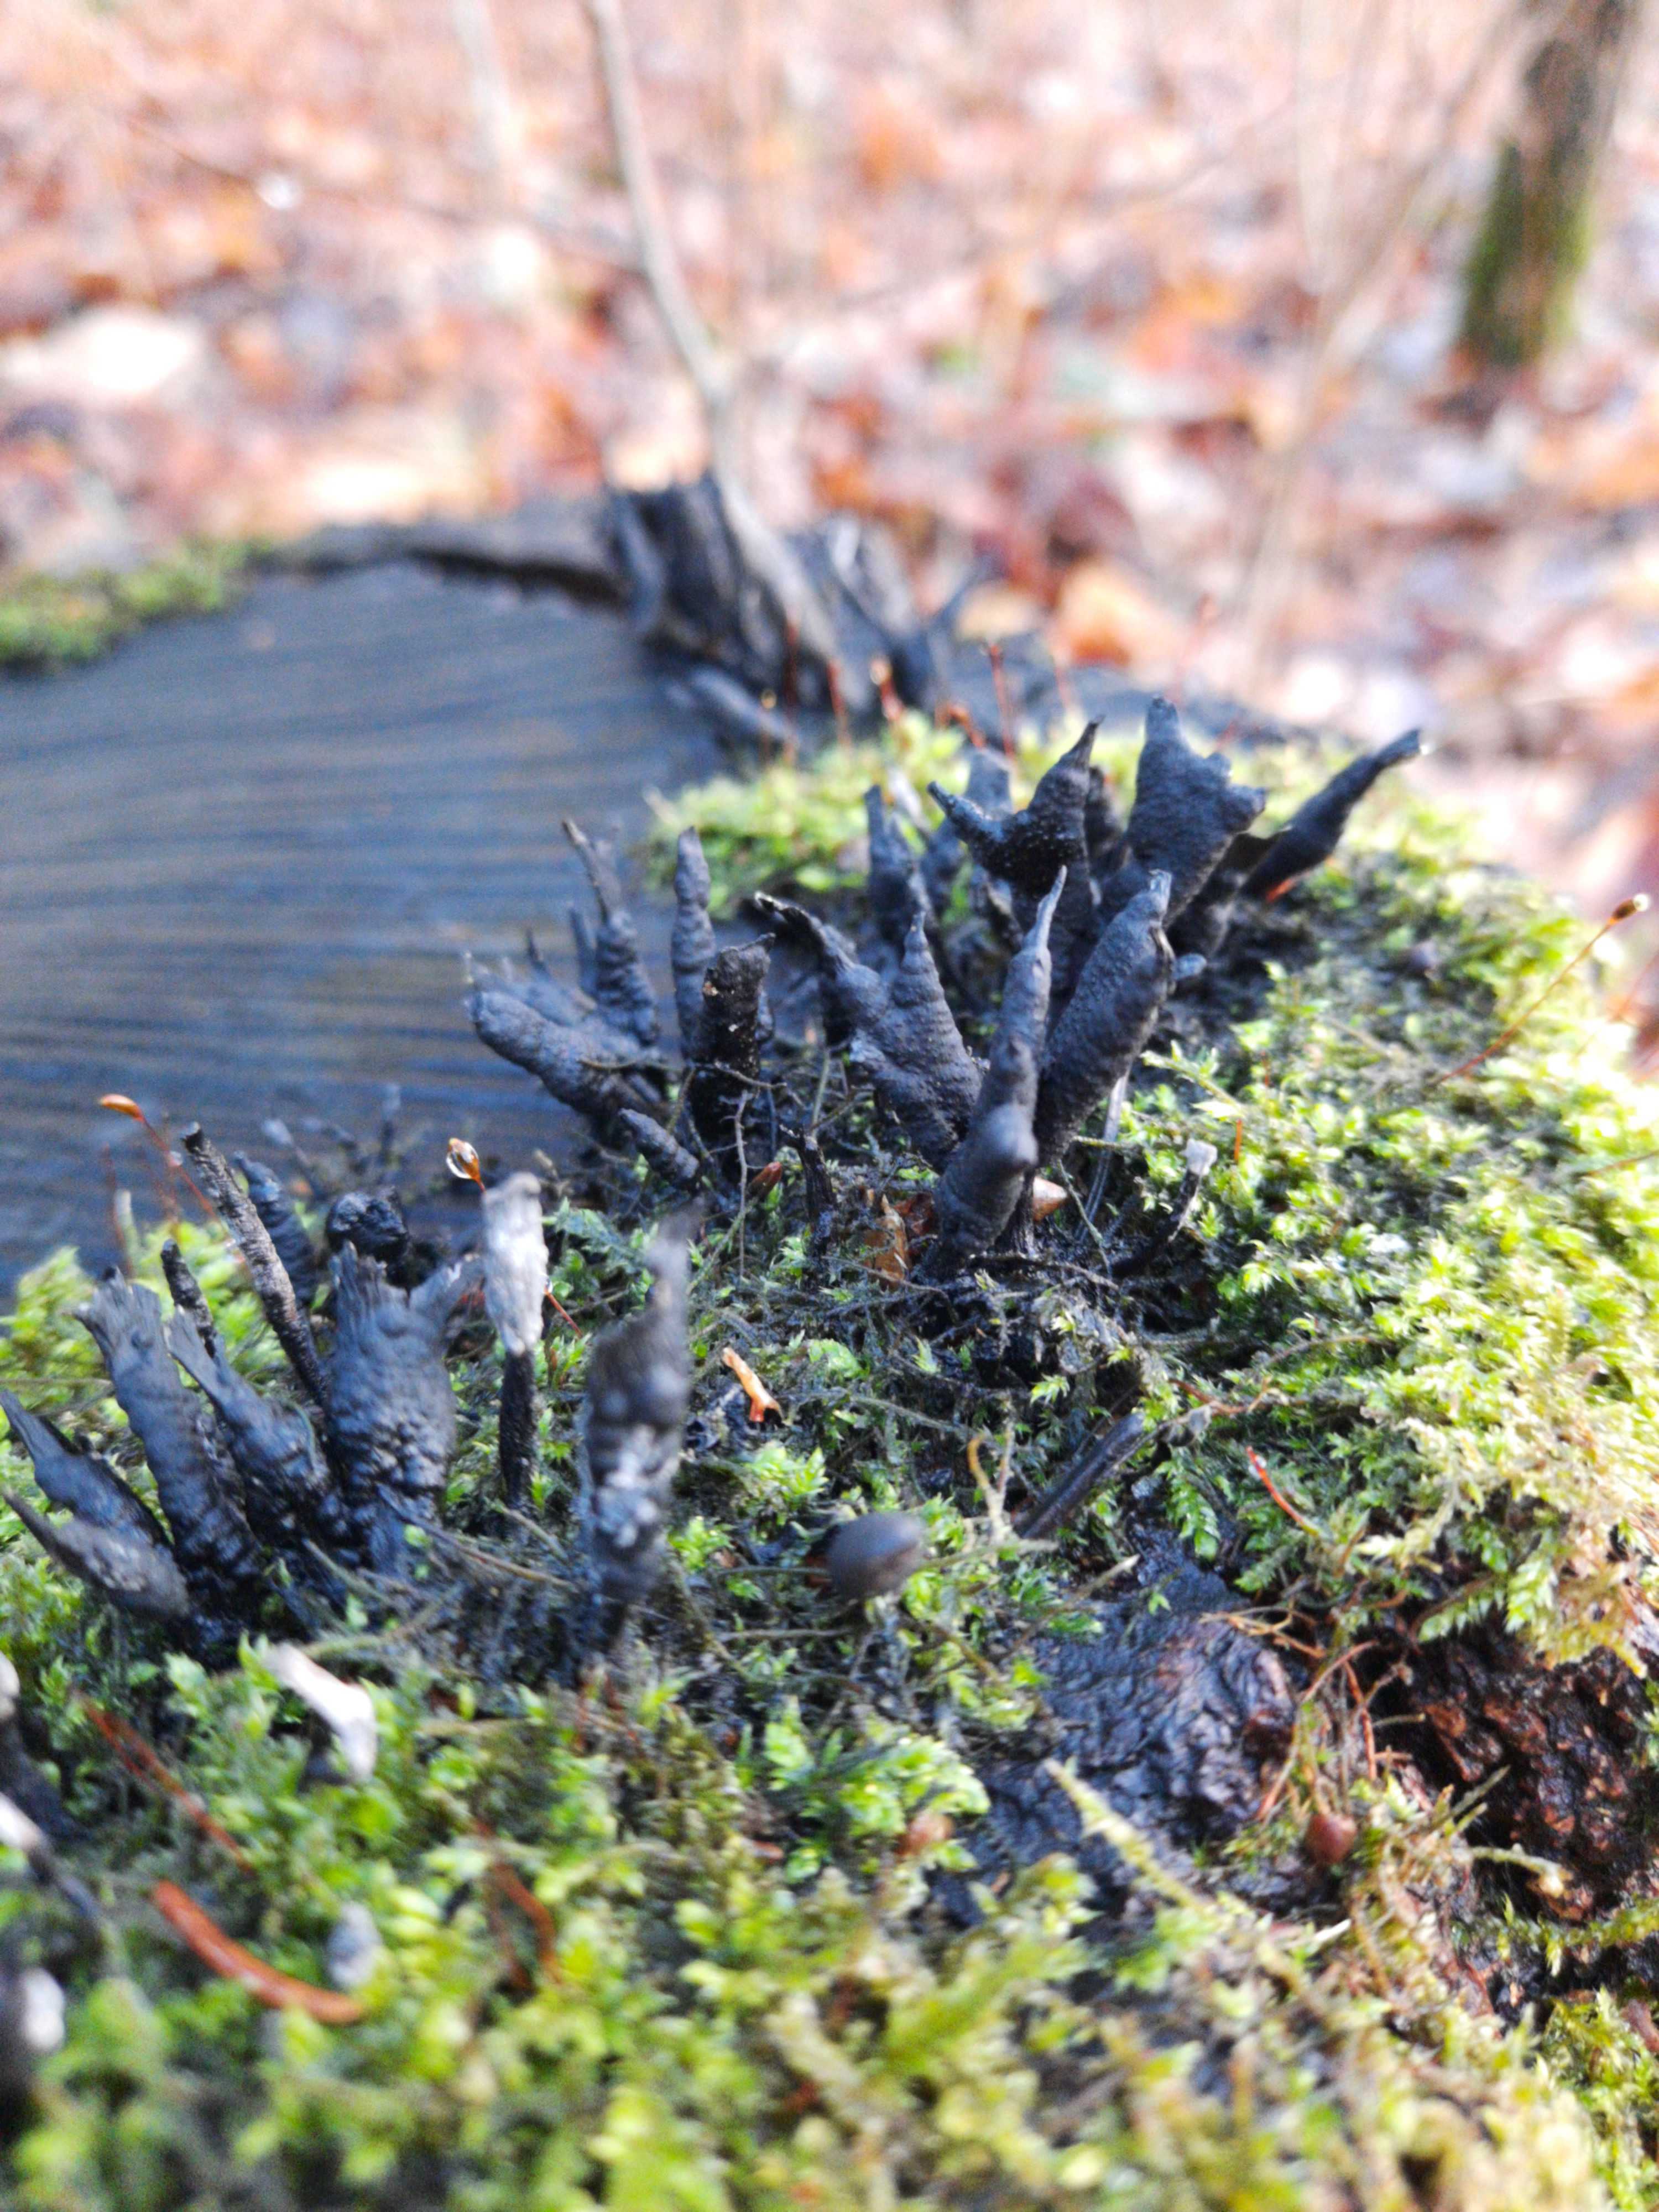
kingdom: Fungi
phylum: Ascomycota
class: Sordariomycetes
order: Xylariales
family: Xylariaceae
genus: Xylaria
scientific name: Xylaria hypoxylon
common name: grenet stødsvamp
